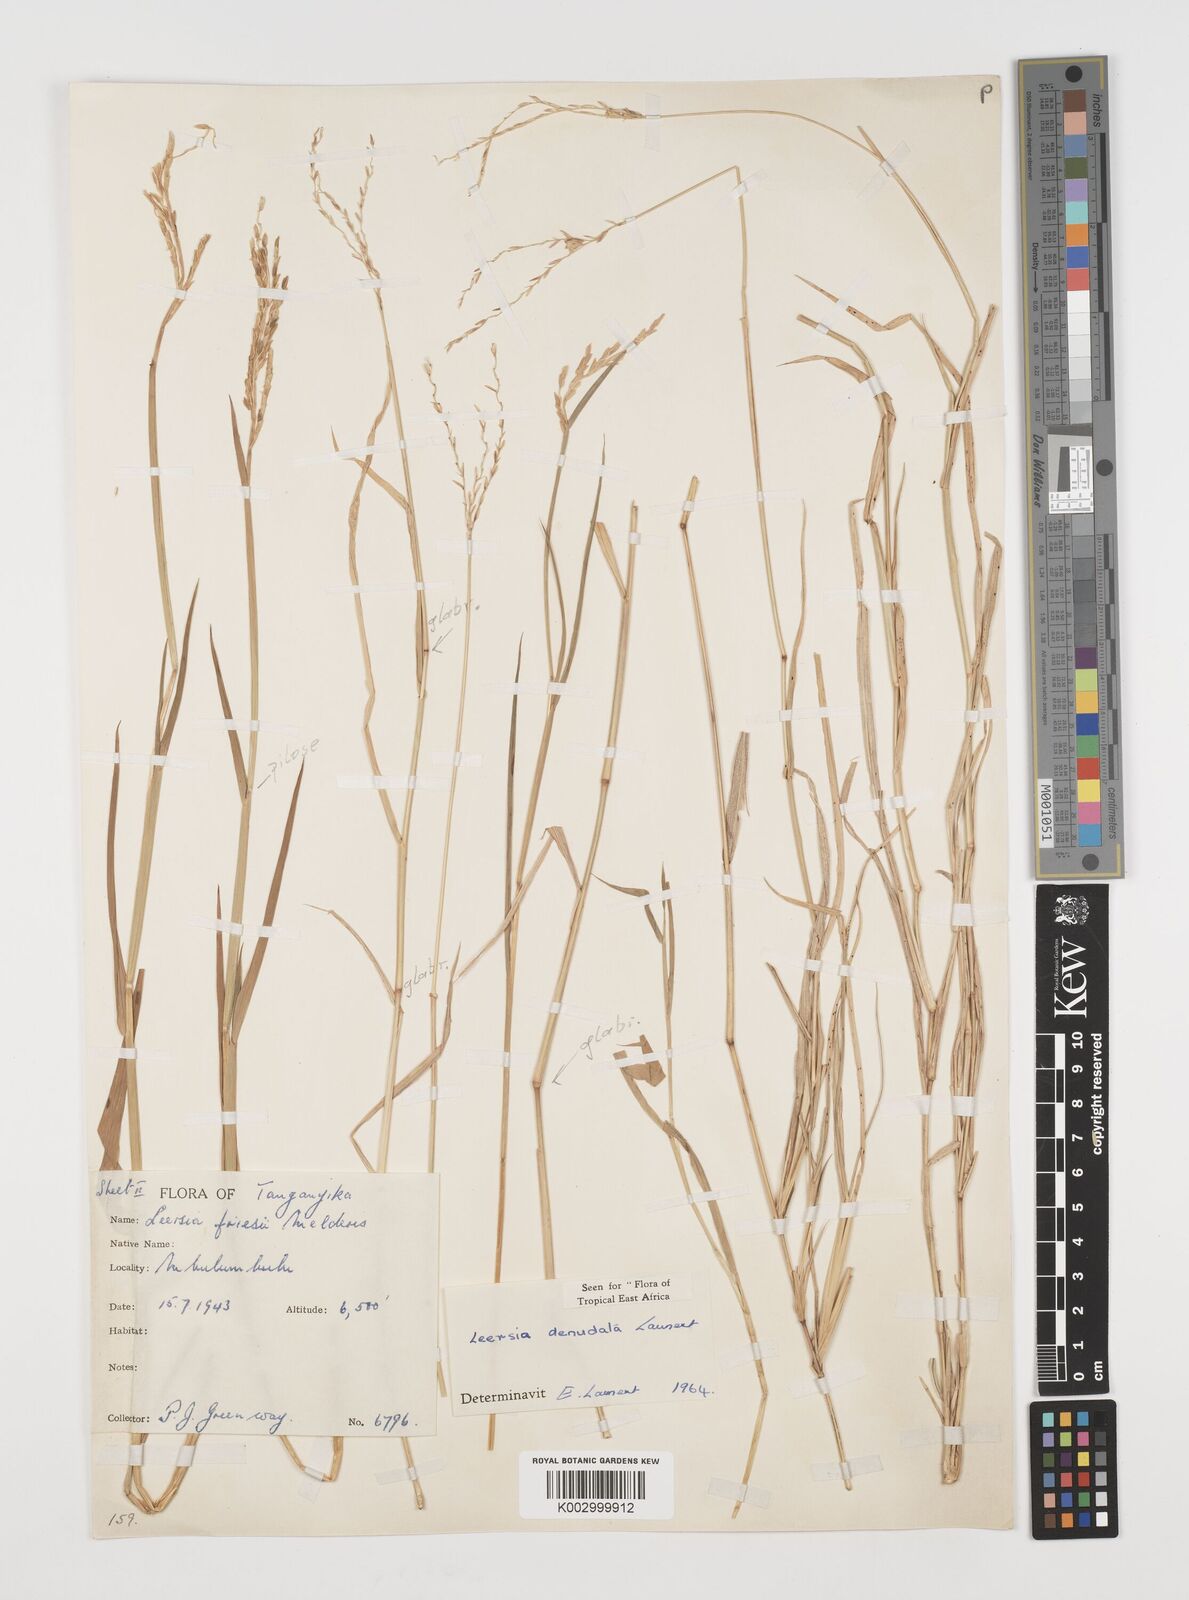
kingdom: Plantae
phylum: Tracheophyta
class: Liliopsida
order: Poales
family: Poaceae
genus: Leersia
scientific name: Leersia denudata
